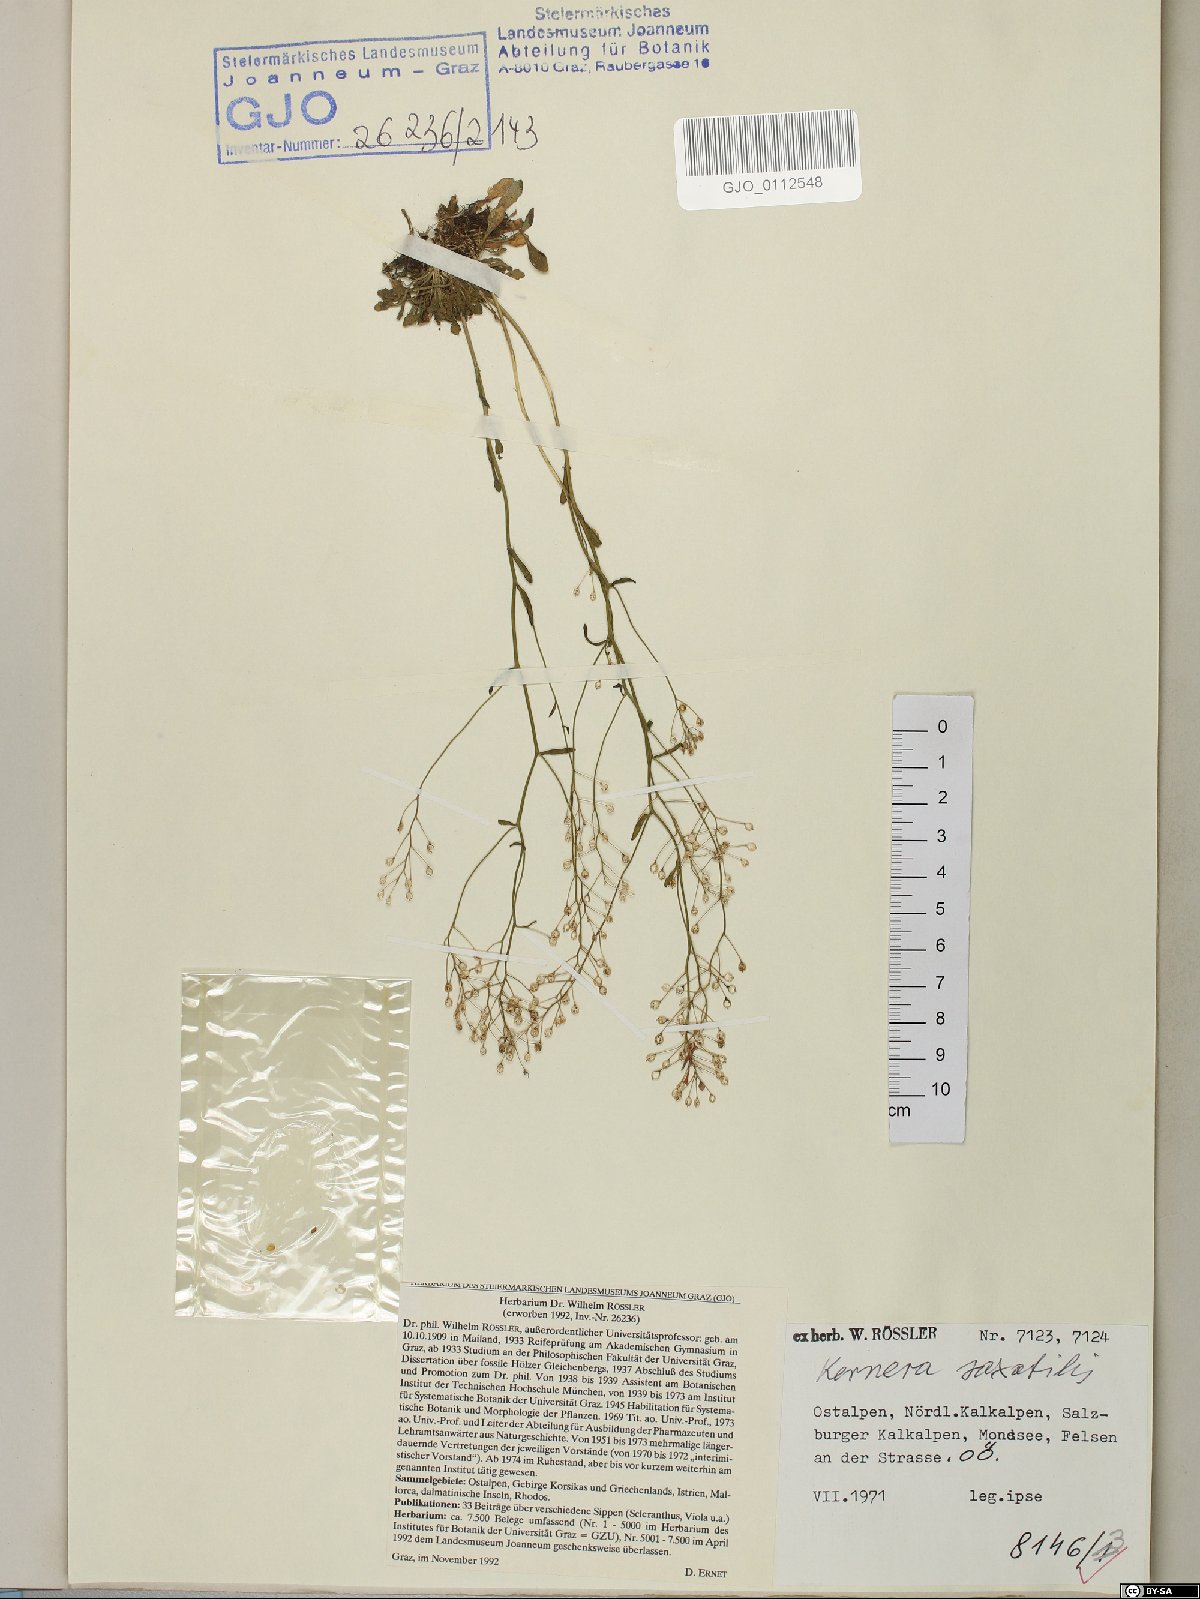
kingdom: Plantae
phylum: Tracheophyta
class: Magnoliopsida
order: Brassicales
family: Brassicaceae
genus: Kernera
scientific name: Kernera saxatilis
